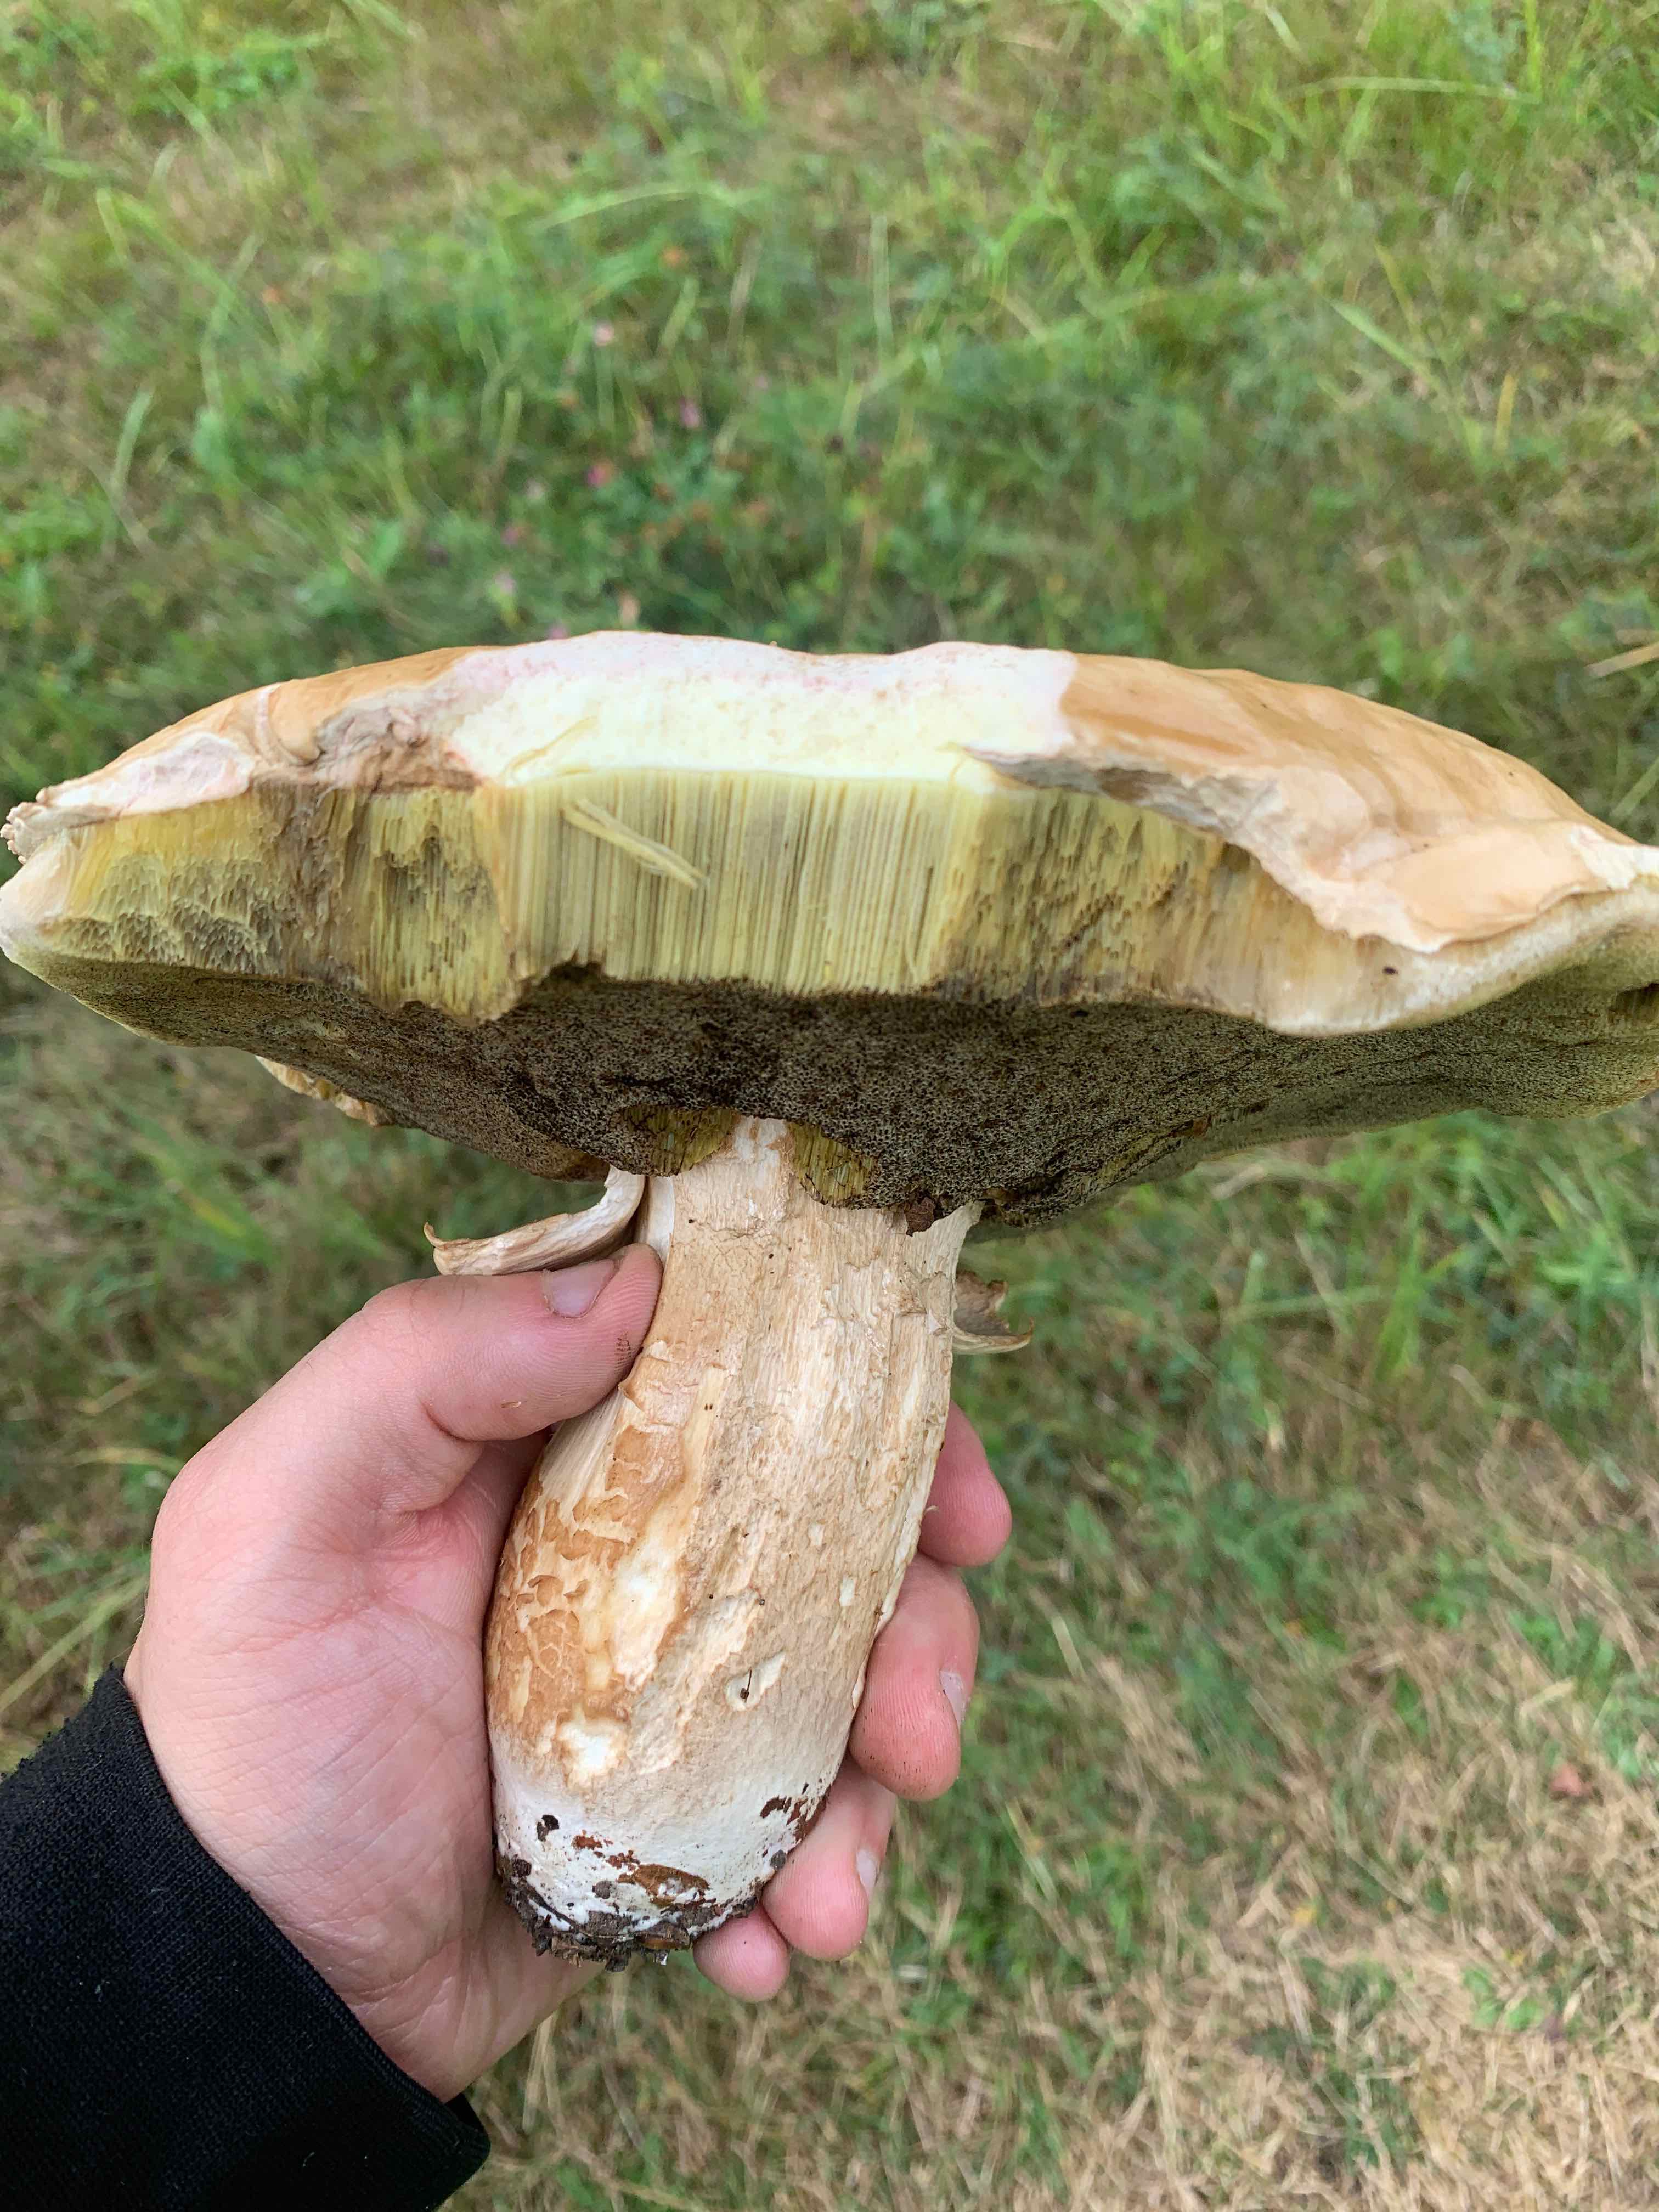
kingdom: Fungi
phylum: Basidiomycota
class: Agaricomycetes
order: Boletales
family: Boletaceae
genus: Boletus
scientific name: Boletus reticulatus
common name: sommer-rørhat
